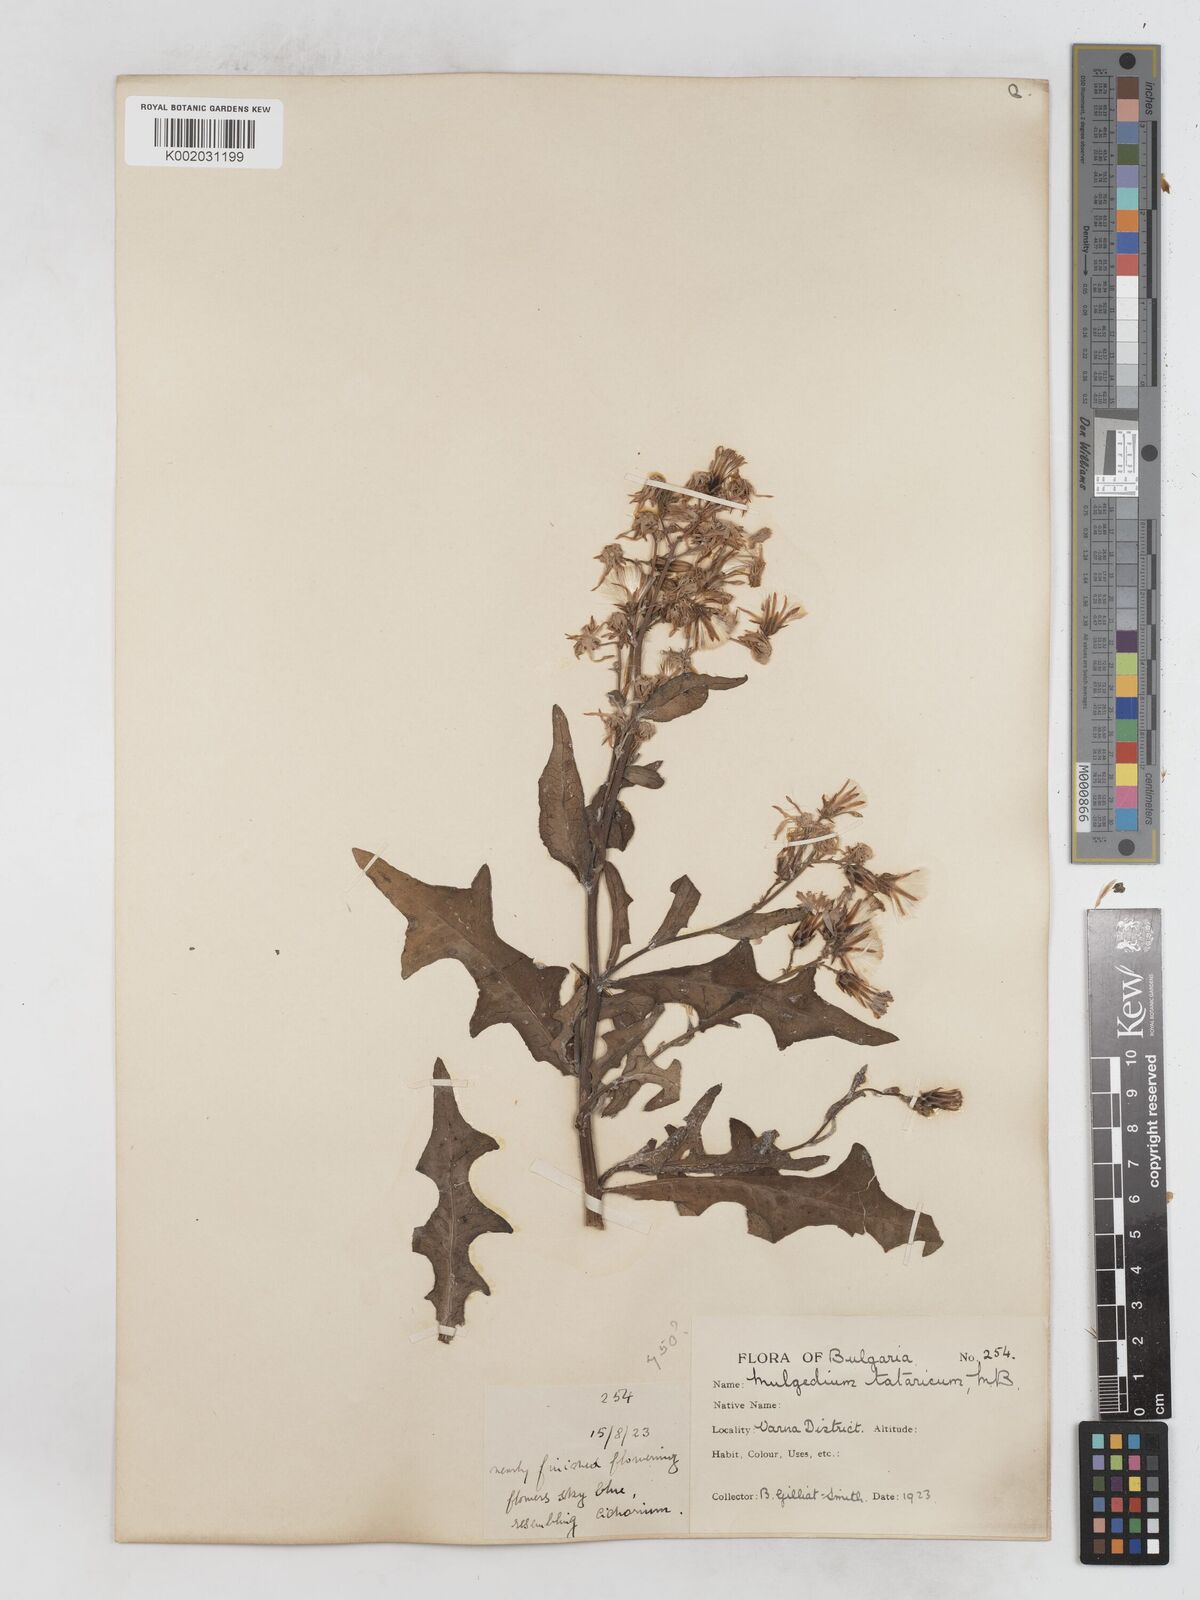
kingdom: Plantae
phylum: Tracheophyta
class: Magnoliopsida
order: Asterales
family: Asteraceae
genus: Lactuca
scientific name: Lactuca tatarica
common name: Blue lettuce
